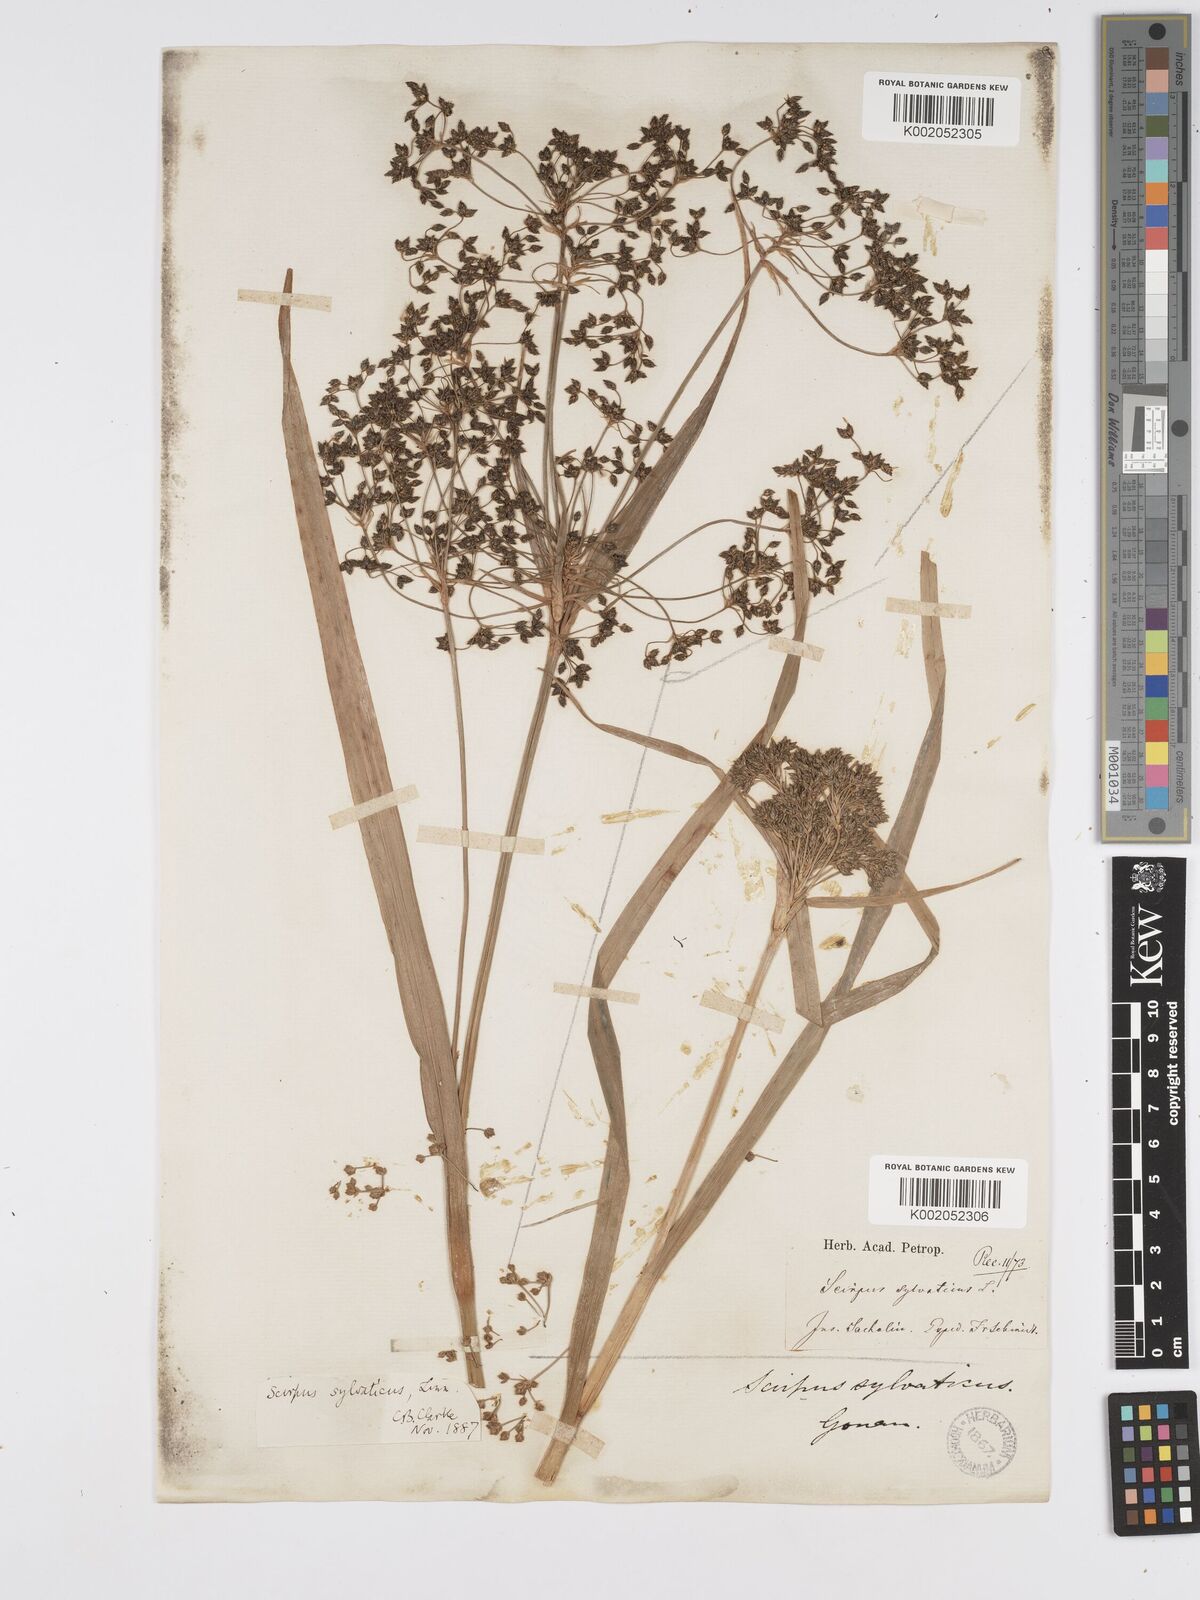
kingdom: Plantae
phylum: Tracheophyta
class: Liliopsida
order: Poales
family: Cyperaceae
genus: Scirpus
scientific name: Scirpus sylvaticus
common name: Wood club-rush
